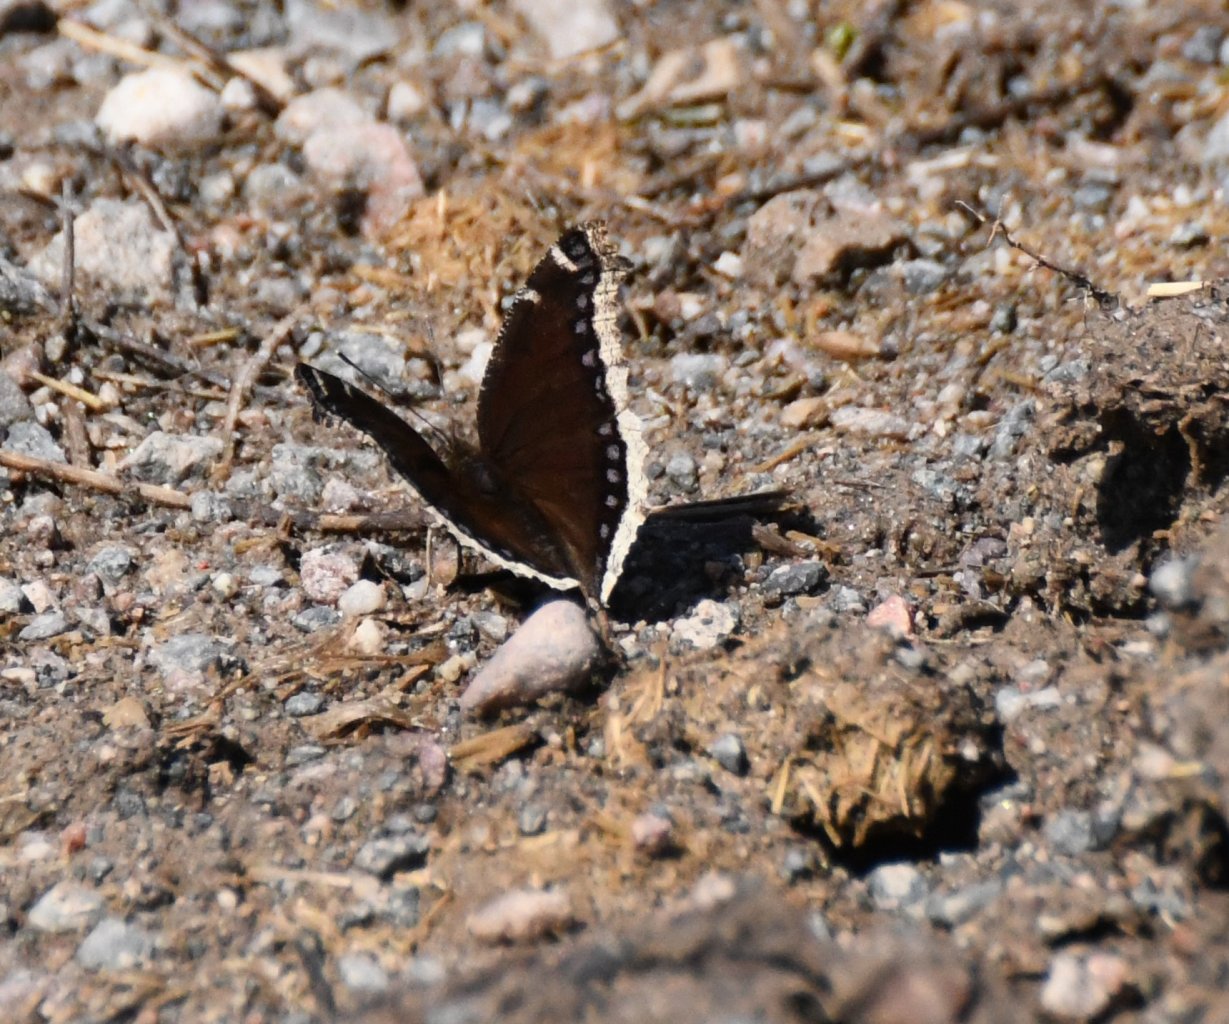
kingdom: Animalia
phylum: Arthropoda
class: Insecta
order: Lepidoptera
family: Nymphalidae
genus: Nymphalis
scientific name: Nymphalis antiopa
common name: Mourning Cloak
